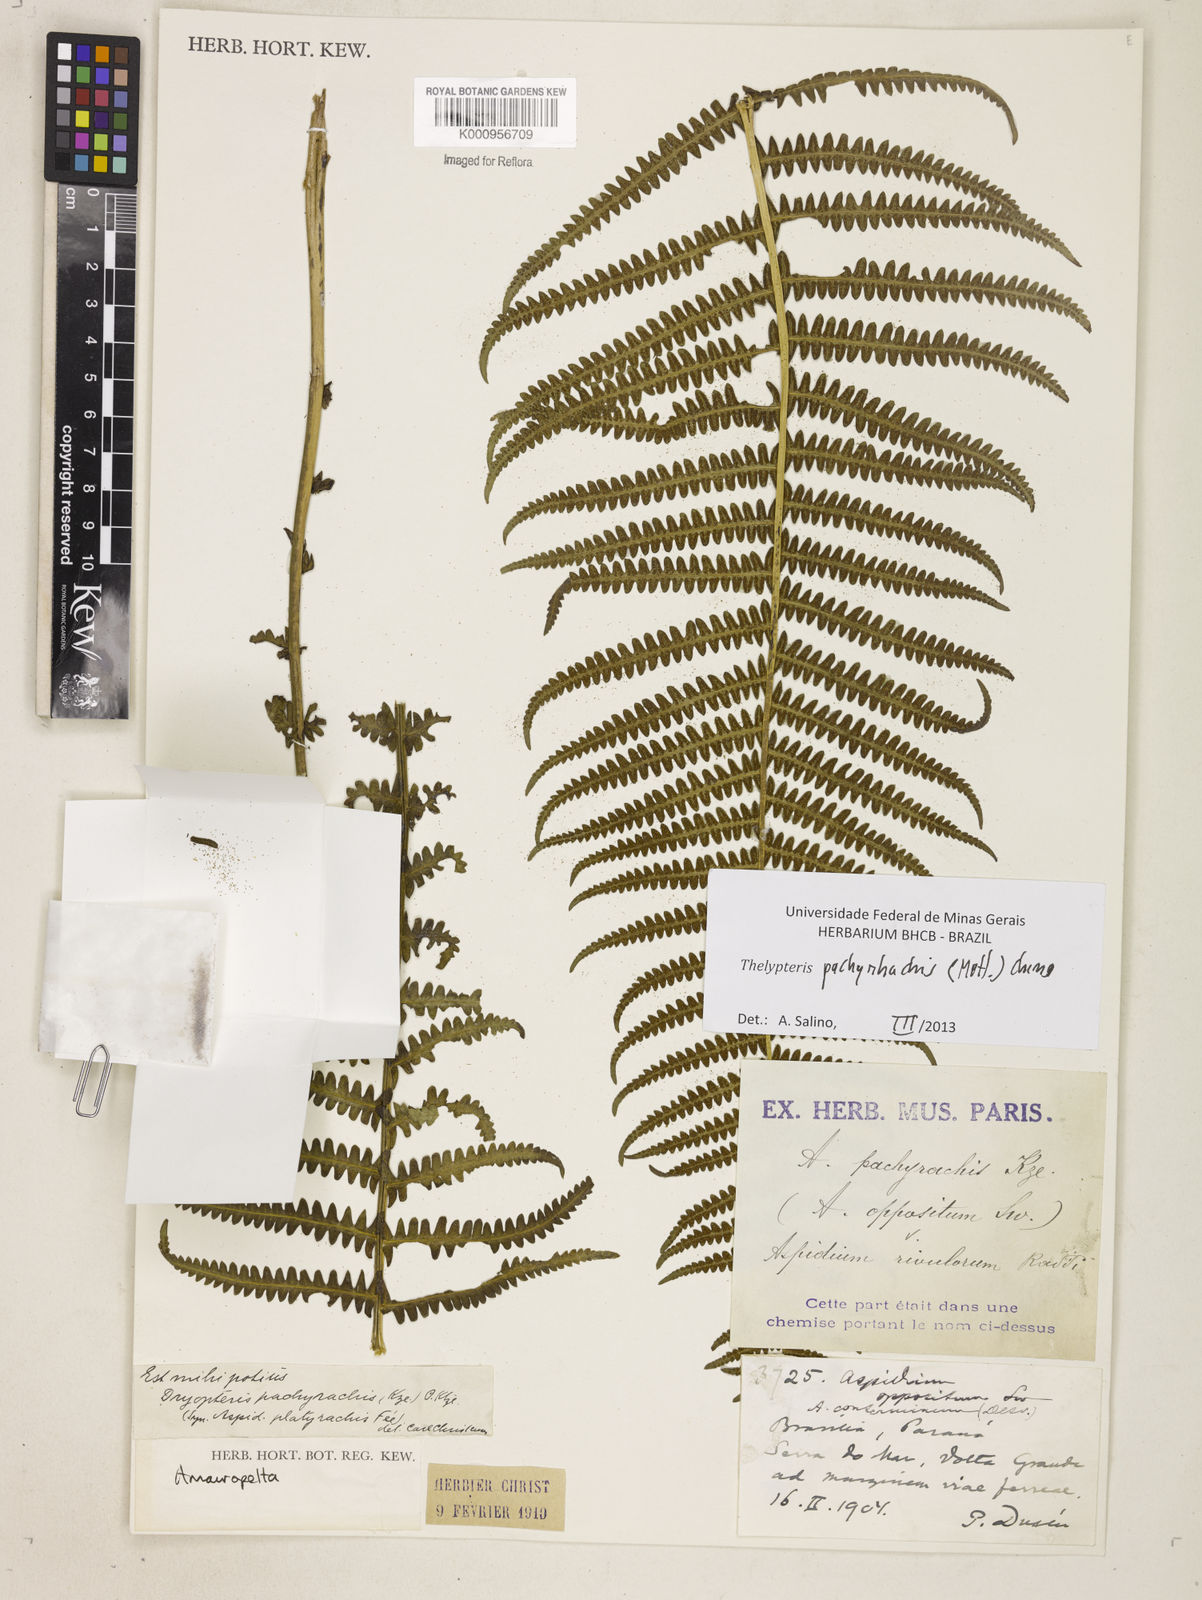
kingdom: Plantae
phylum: Tracheophyta
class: Polypodiopsida
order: Polypodiales
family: Thelypteridaceae
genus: Amauropelta
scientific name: Amauropelta pachyrhachis
